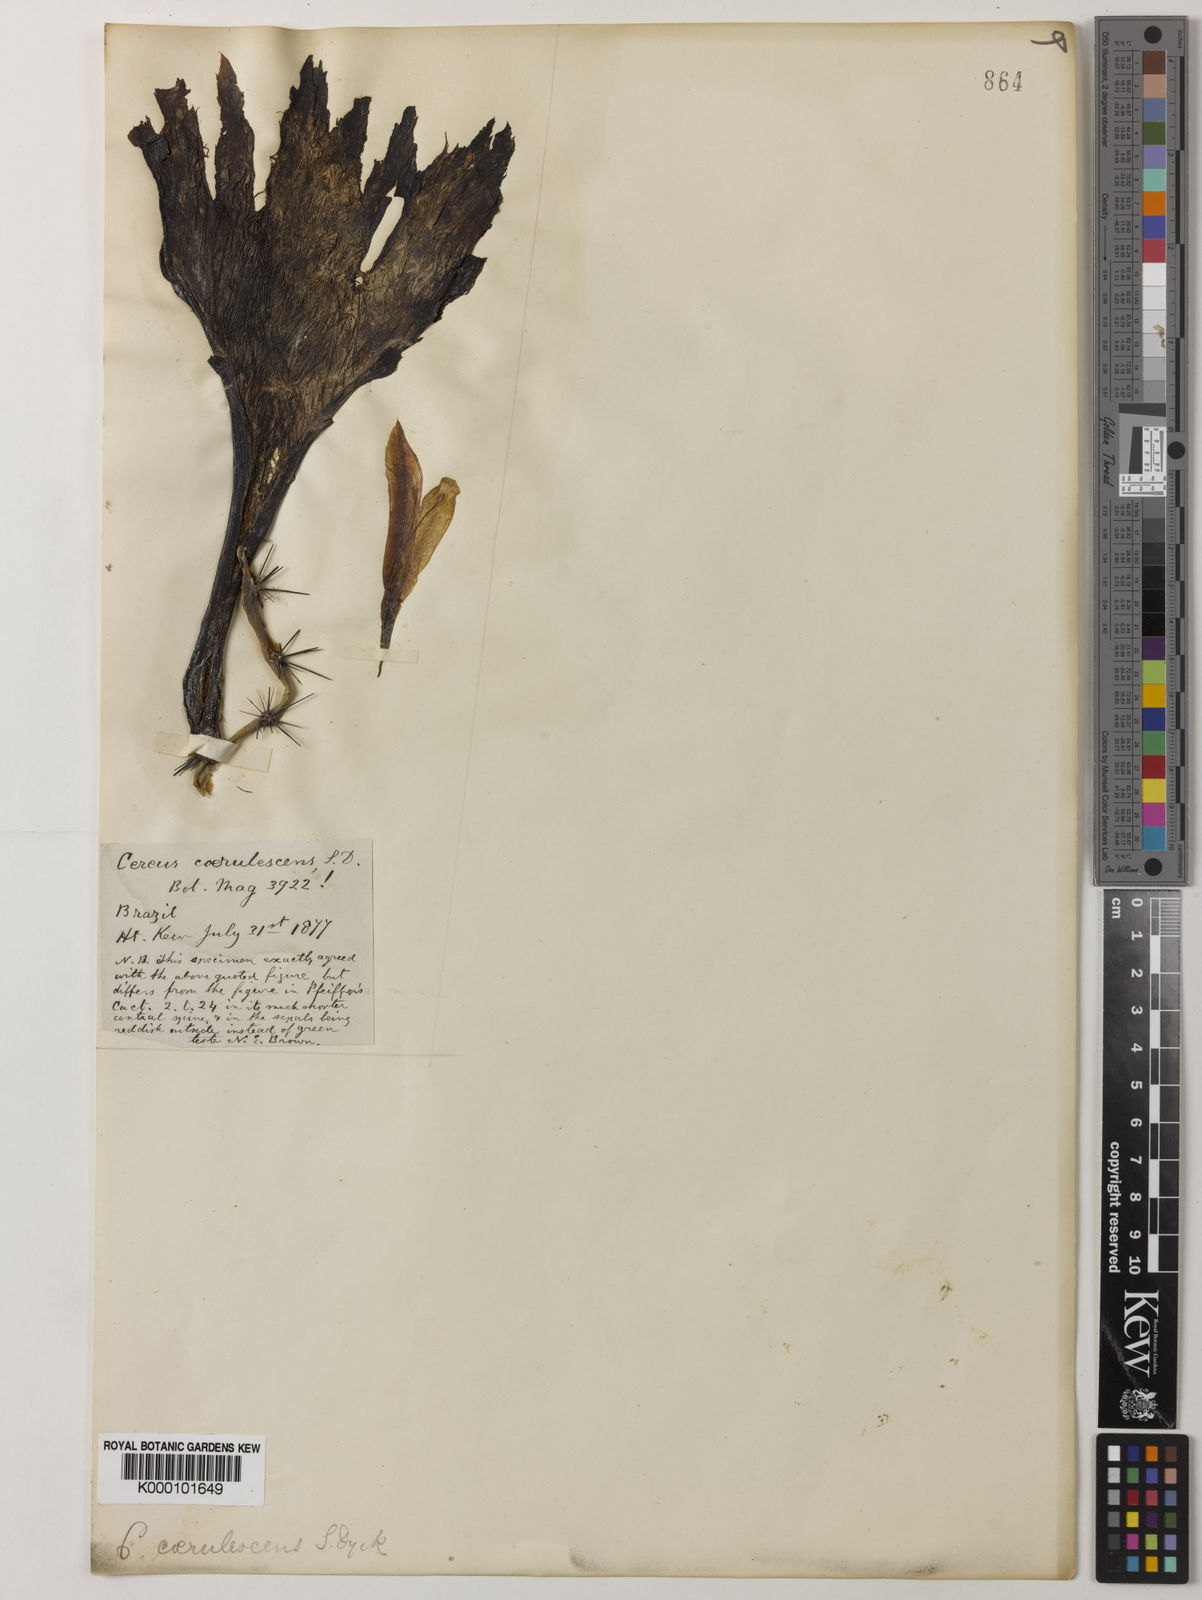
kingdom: Plantae
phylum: Tracheophyta
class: Magnoliopsida
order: Caryophyllales
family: Cactaceae
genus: Cereus
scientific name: Cereus aethiops
